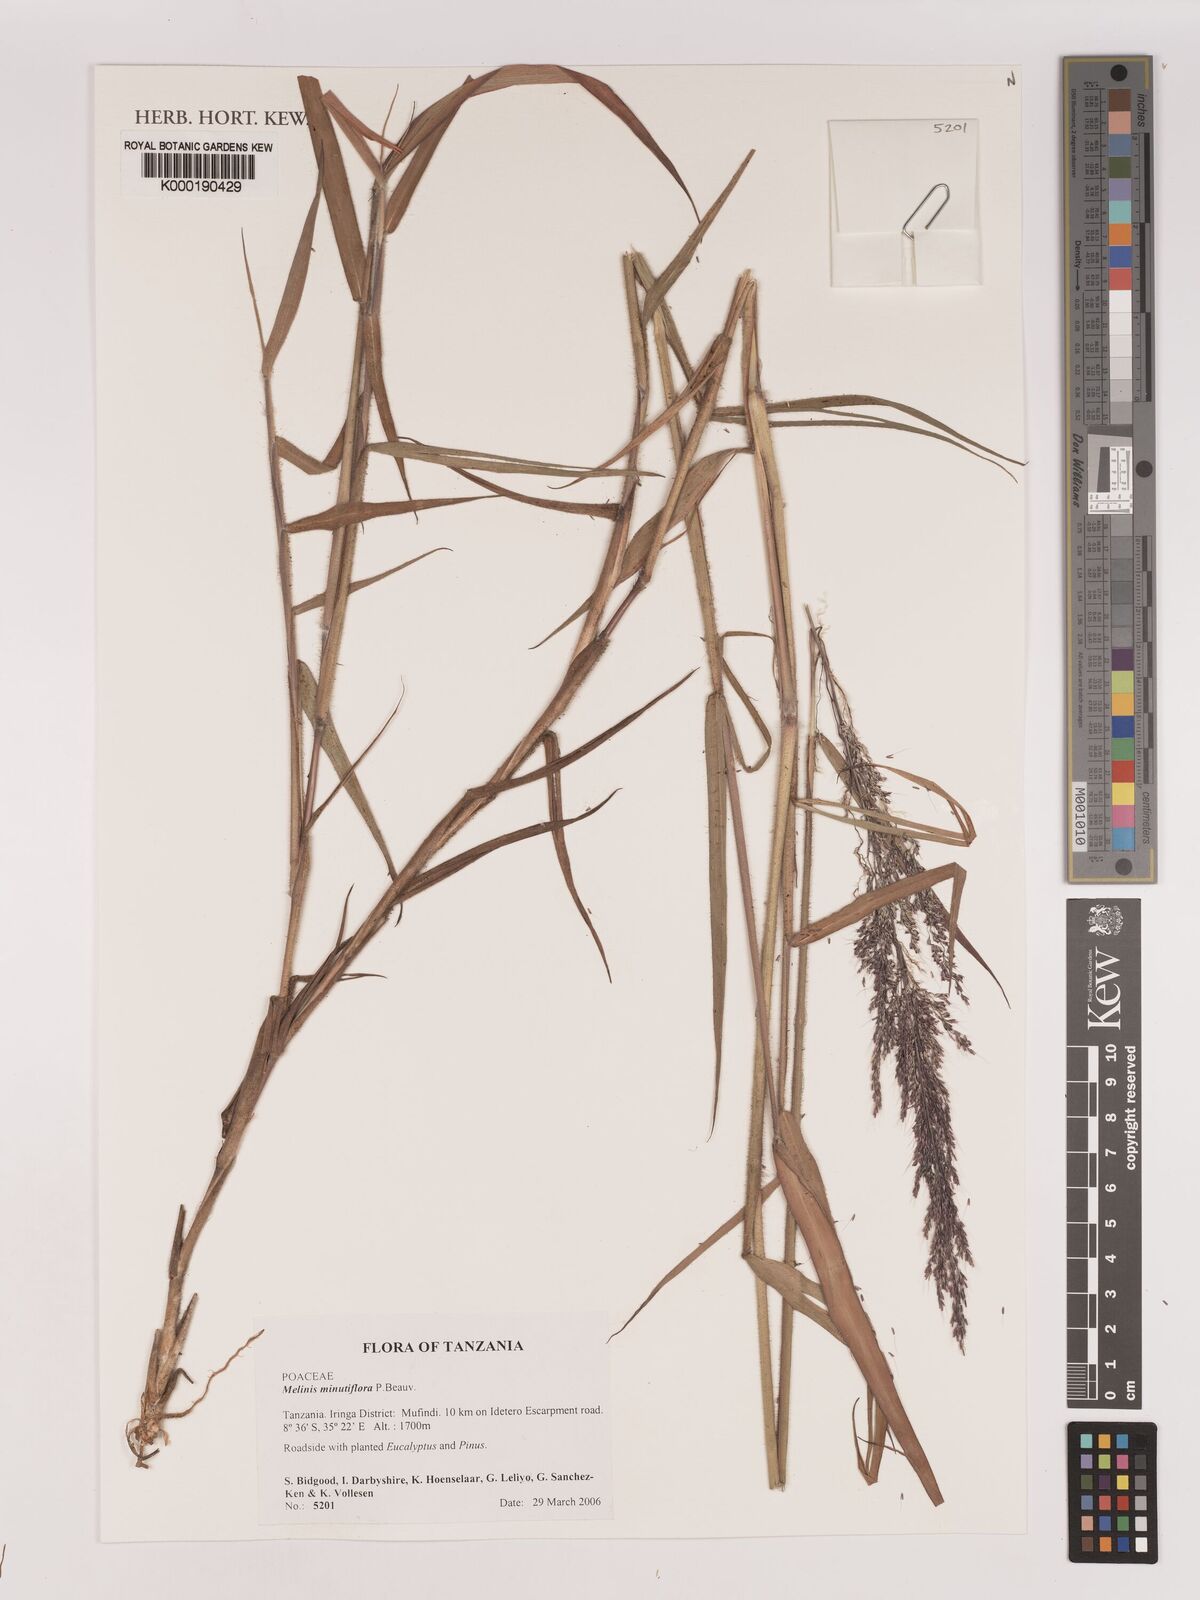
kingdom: Plantae
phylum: Tracheophyta
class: Liliopsida
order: Poales
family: Poaceae
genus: Melinis
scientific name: Melinis minutiflora
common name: Molassesgrass
